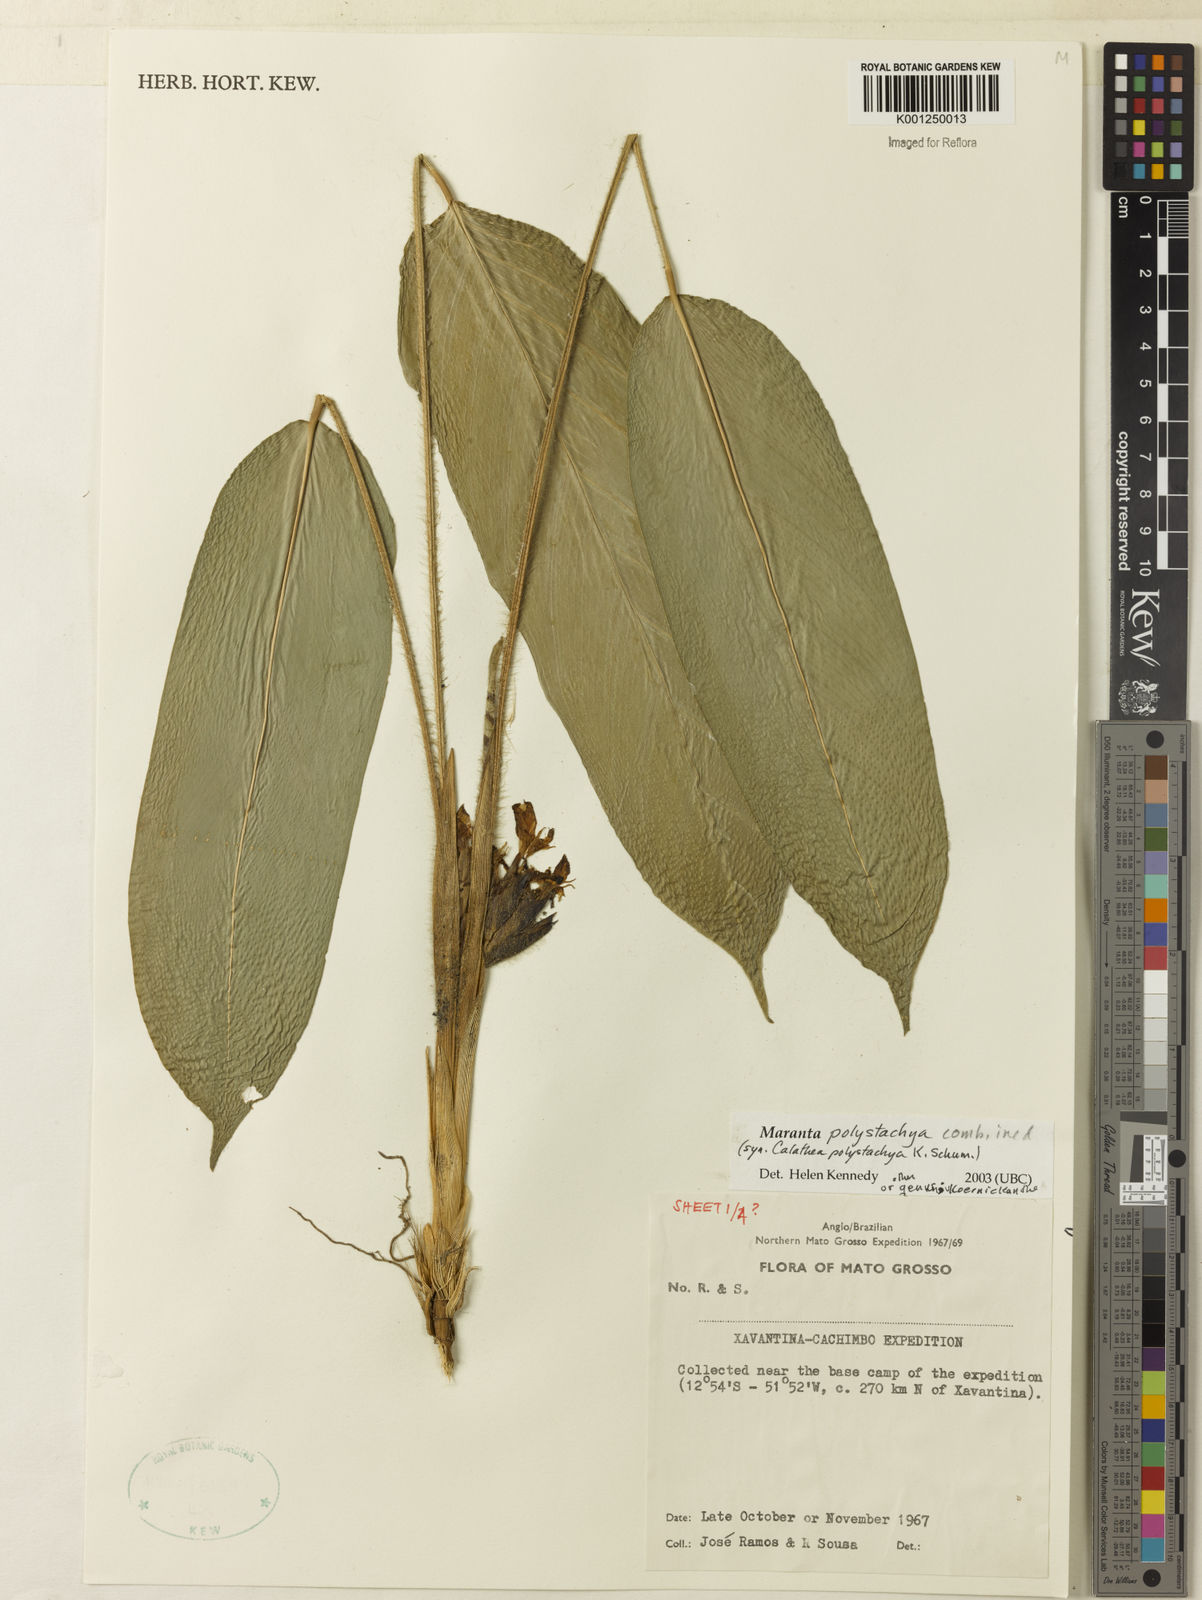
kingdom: Plantae
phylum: Tracheophyta
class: Liliopsida
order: Zingiberales
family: Marantaceae
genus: Ischnosiphon
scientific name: Ischnosiphon polyphyllus
